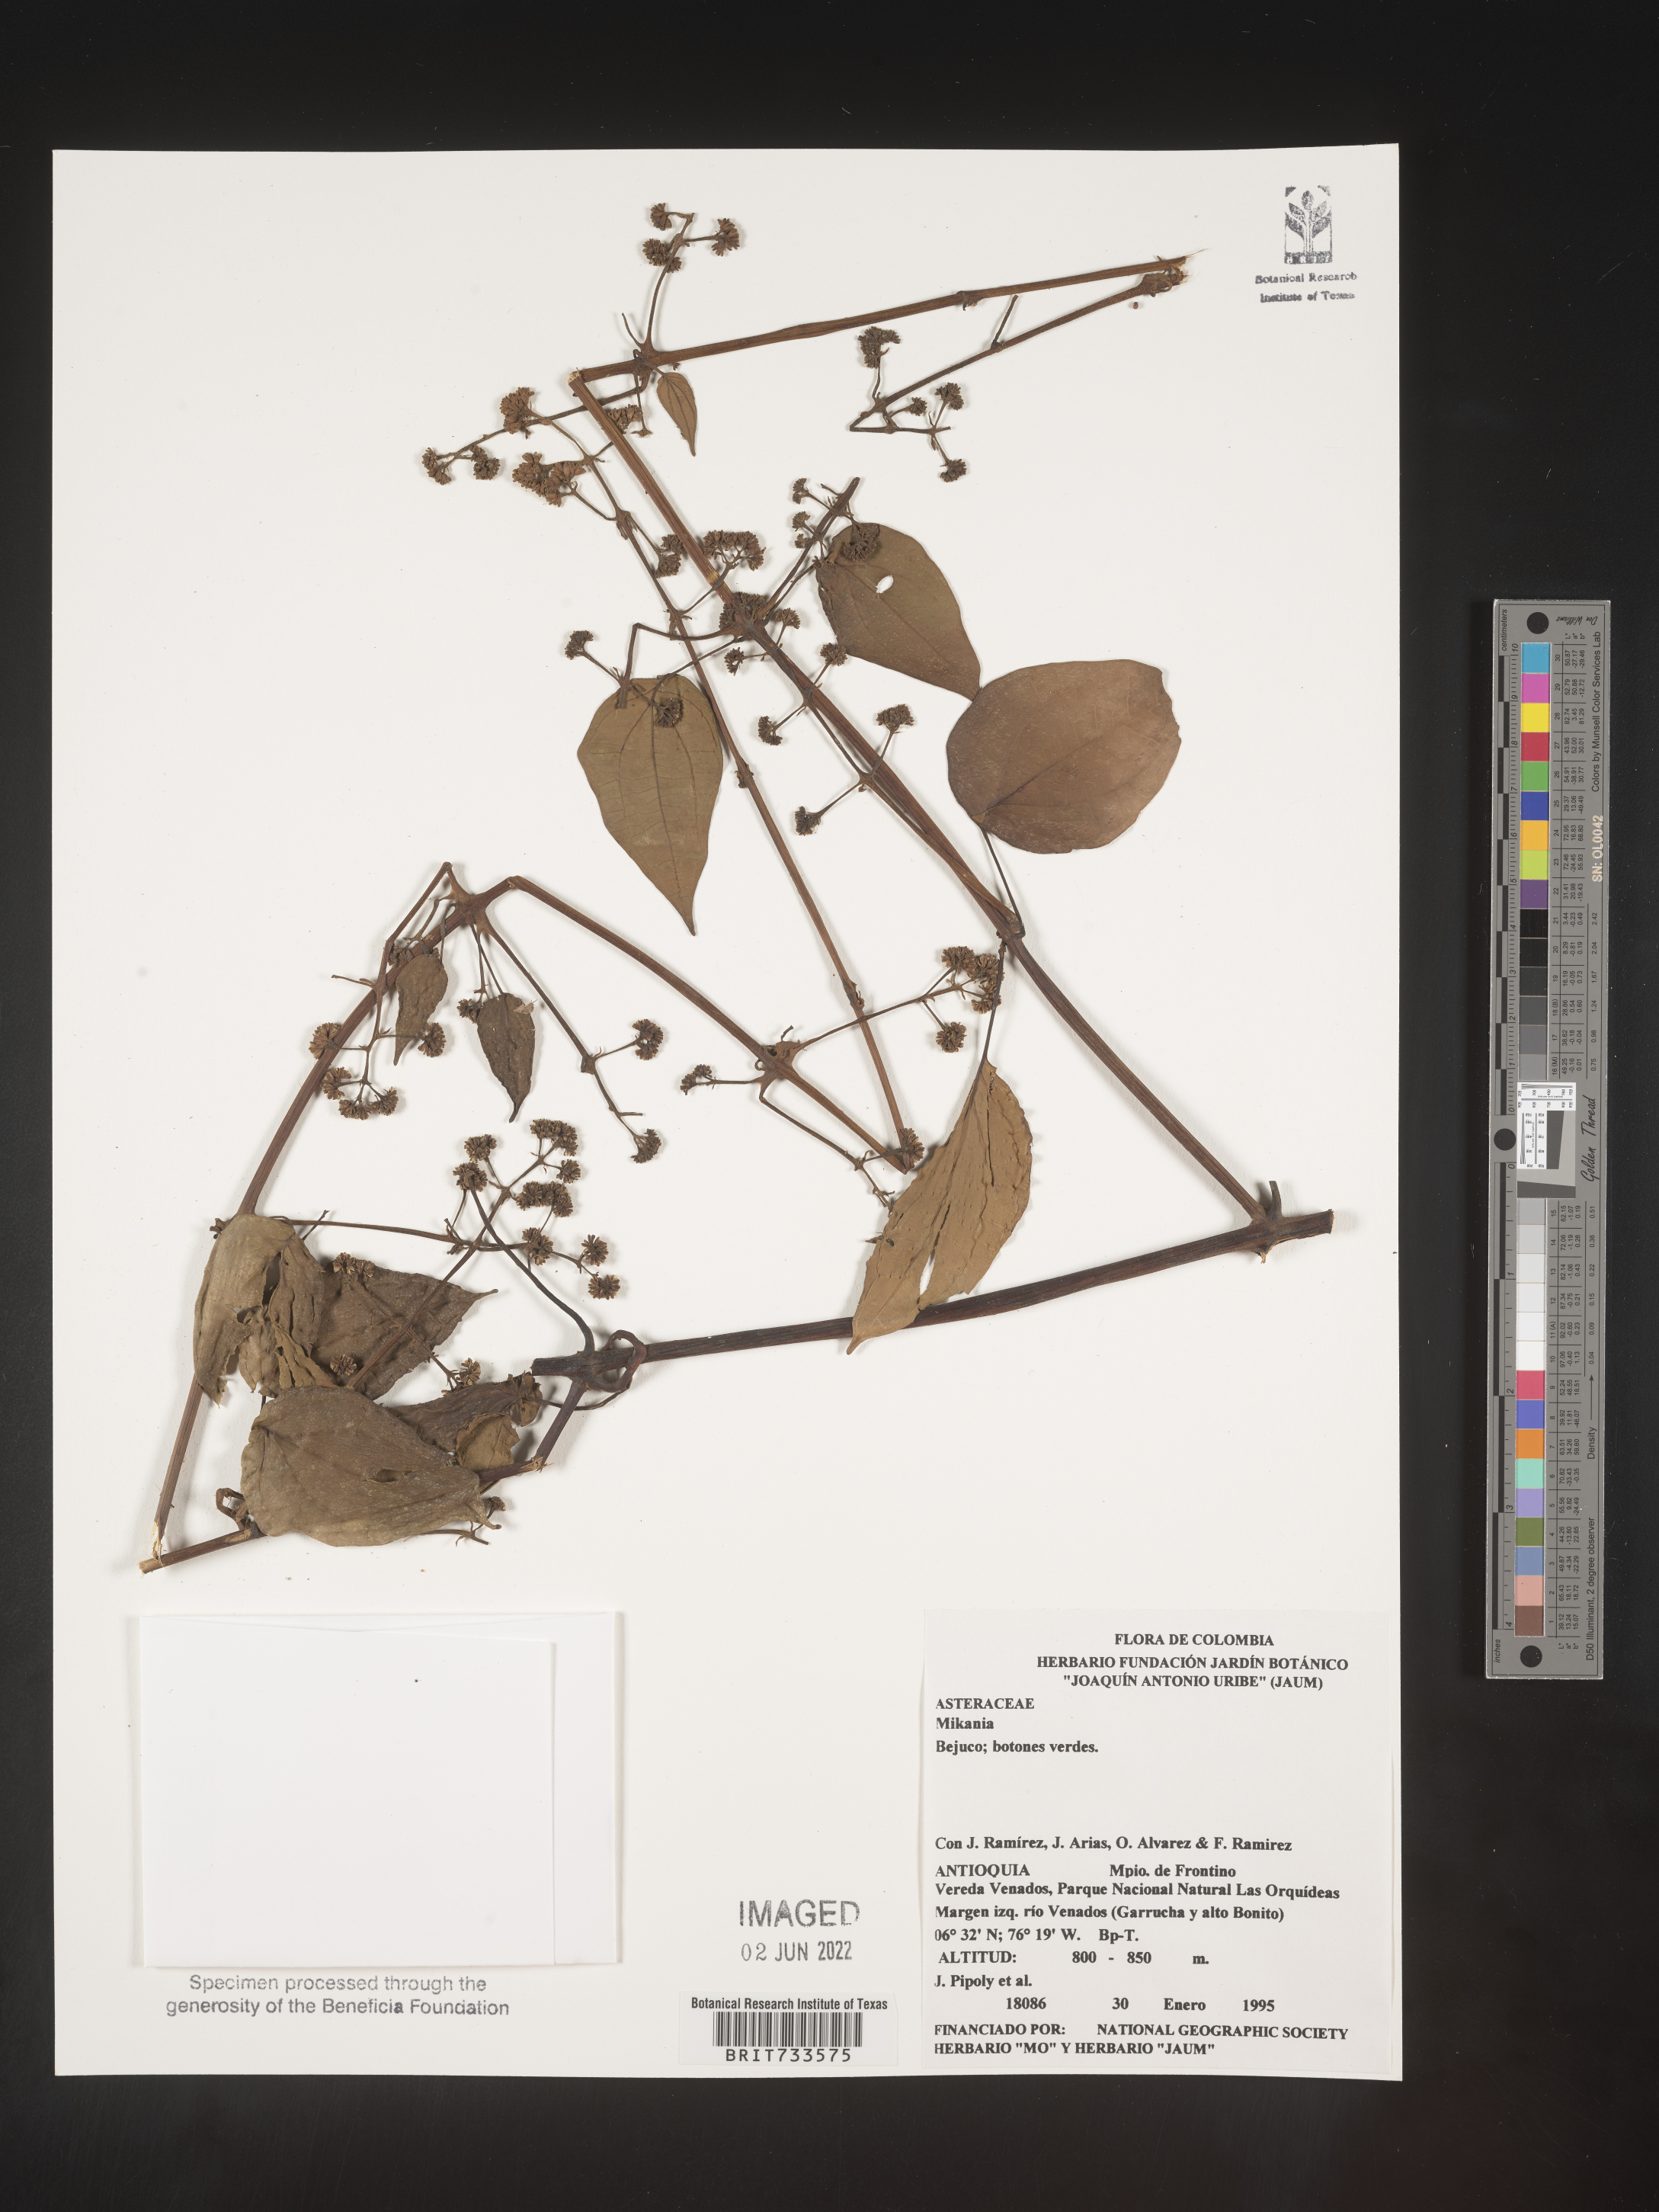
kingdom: Plantae
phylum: Tracheophyta
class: Magnoliopsida
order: Asterales
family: Asteraceae
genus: Mikania
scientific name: Mikania
